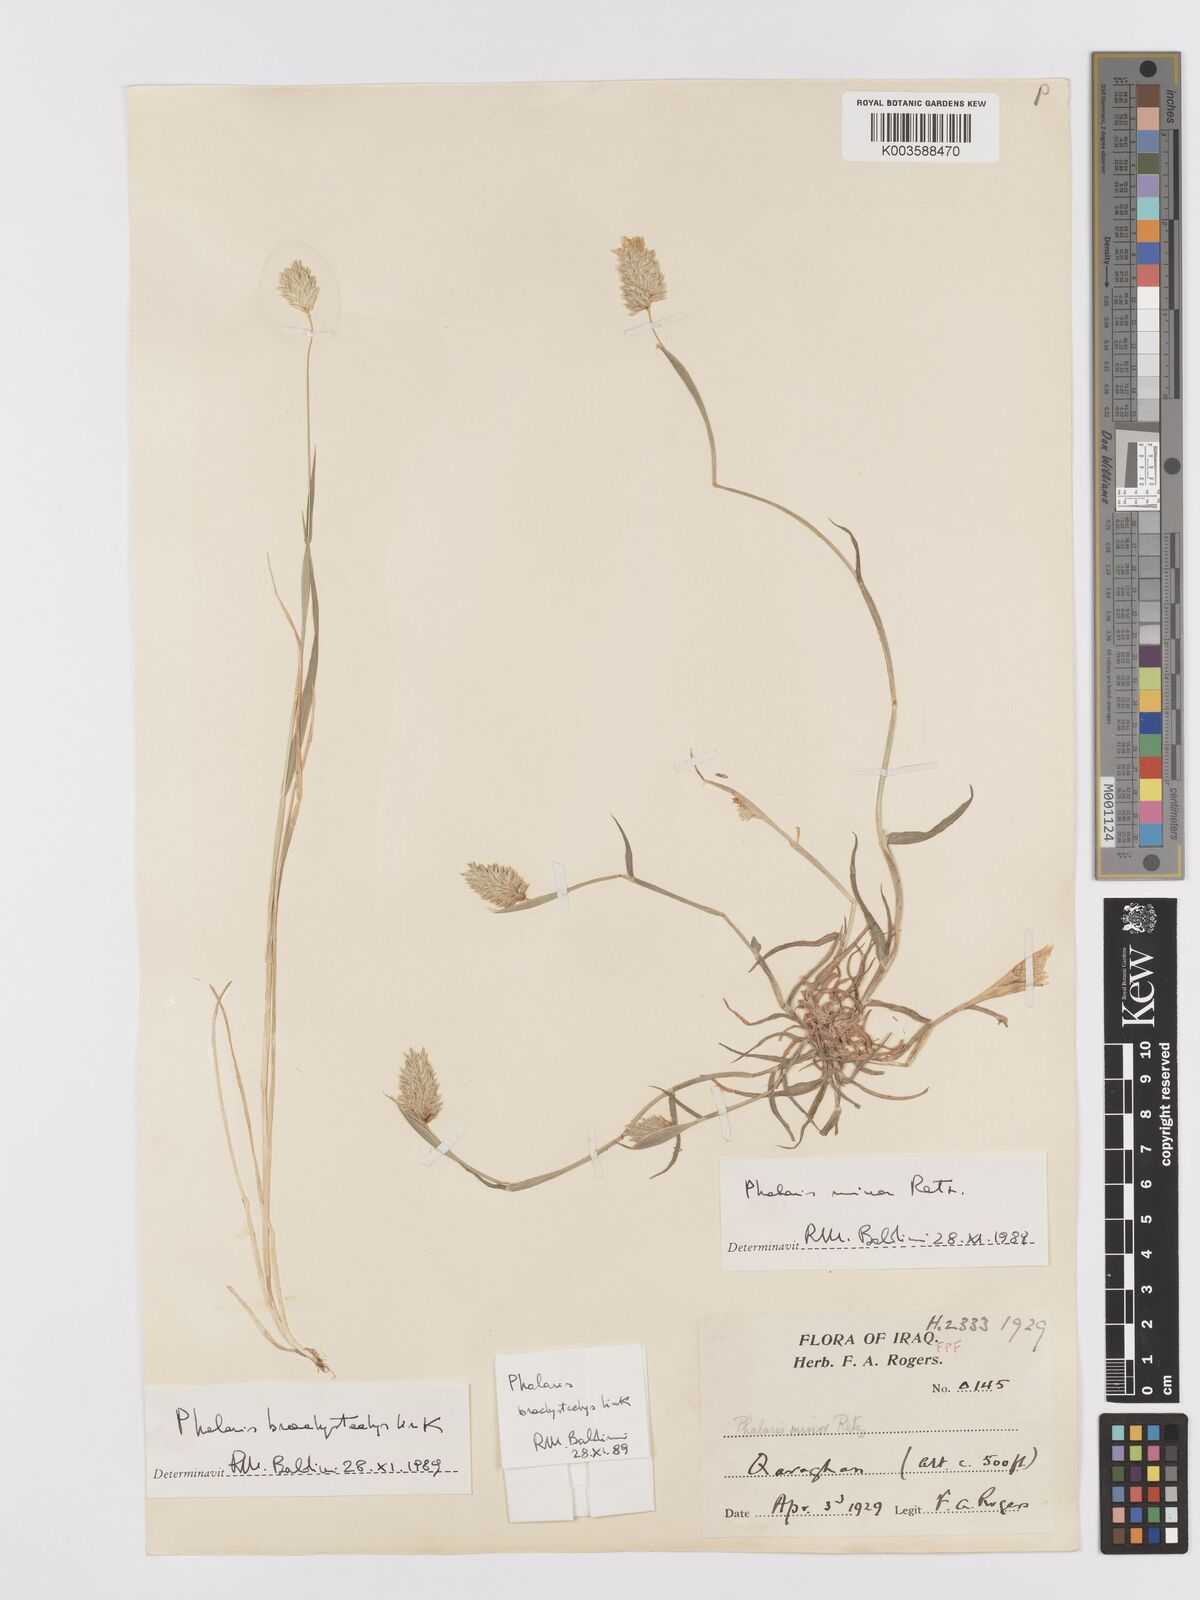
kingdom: Plantae
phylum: Tracheophyta
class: Liliopsida
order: Poales
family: Poaceae
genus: Phalaris
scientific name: Phalaris minor
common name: Littleseed canarygrass
